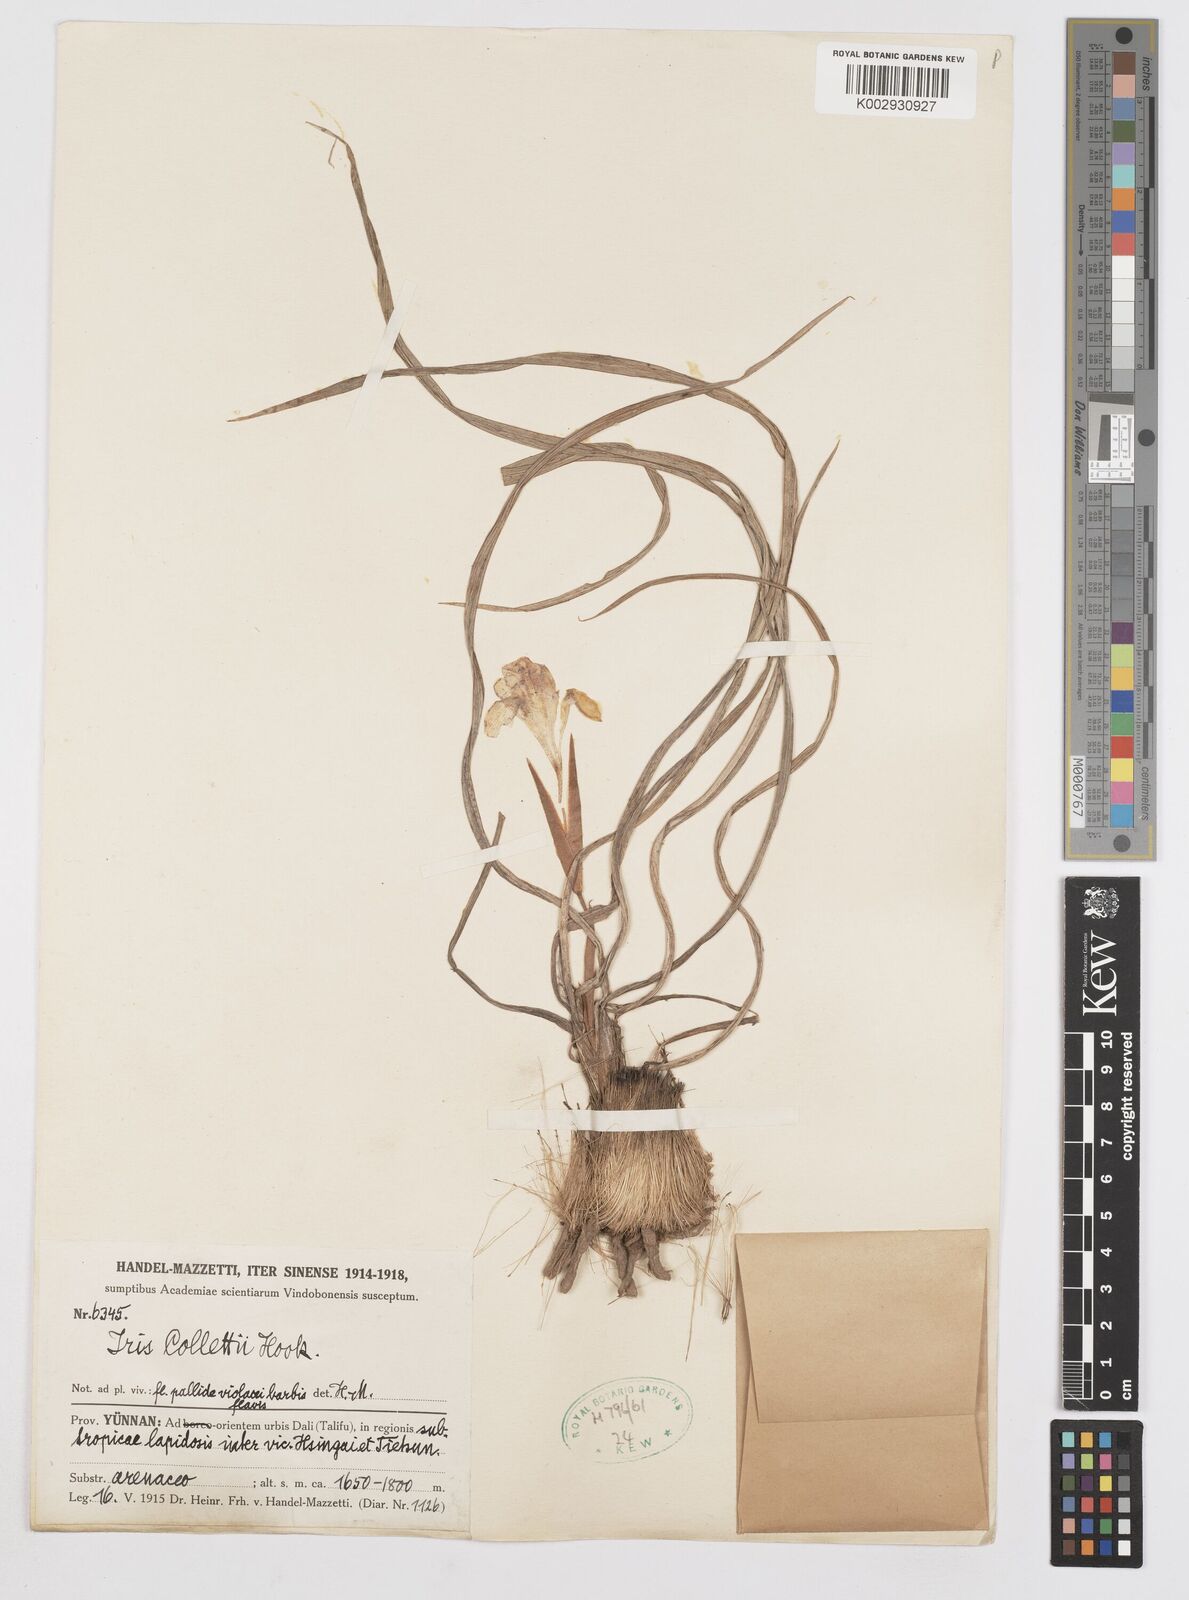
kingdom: Plantae
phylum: Tracheophyta
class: Liliopsida
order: Asparagales
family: Iridaceae
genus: Iris
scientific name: Iris collettii
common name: Plateau iris
